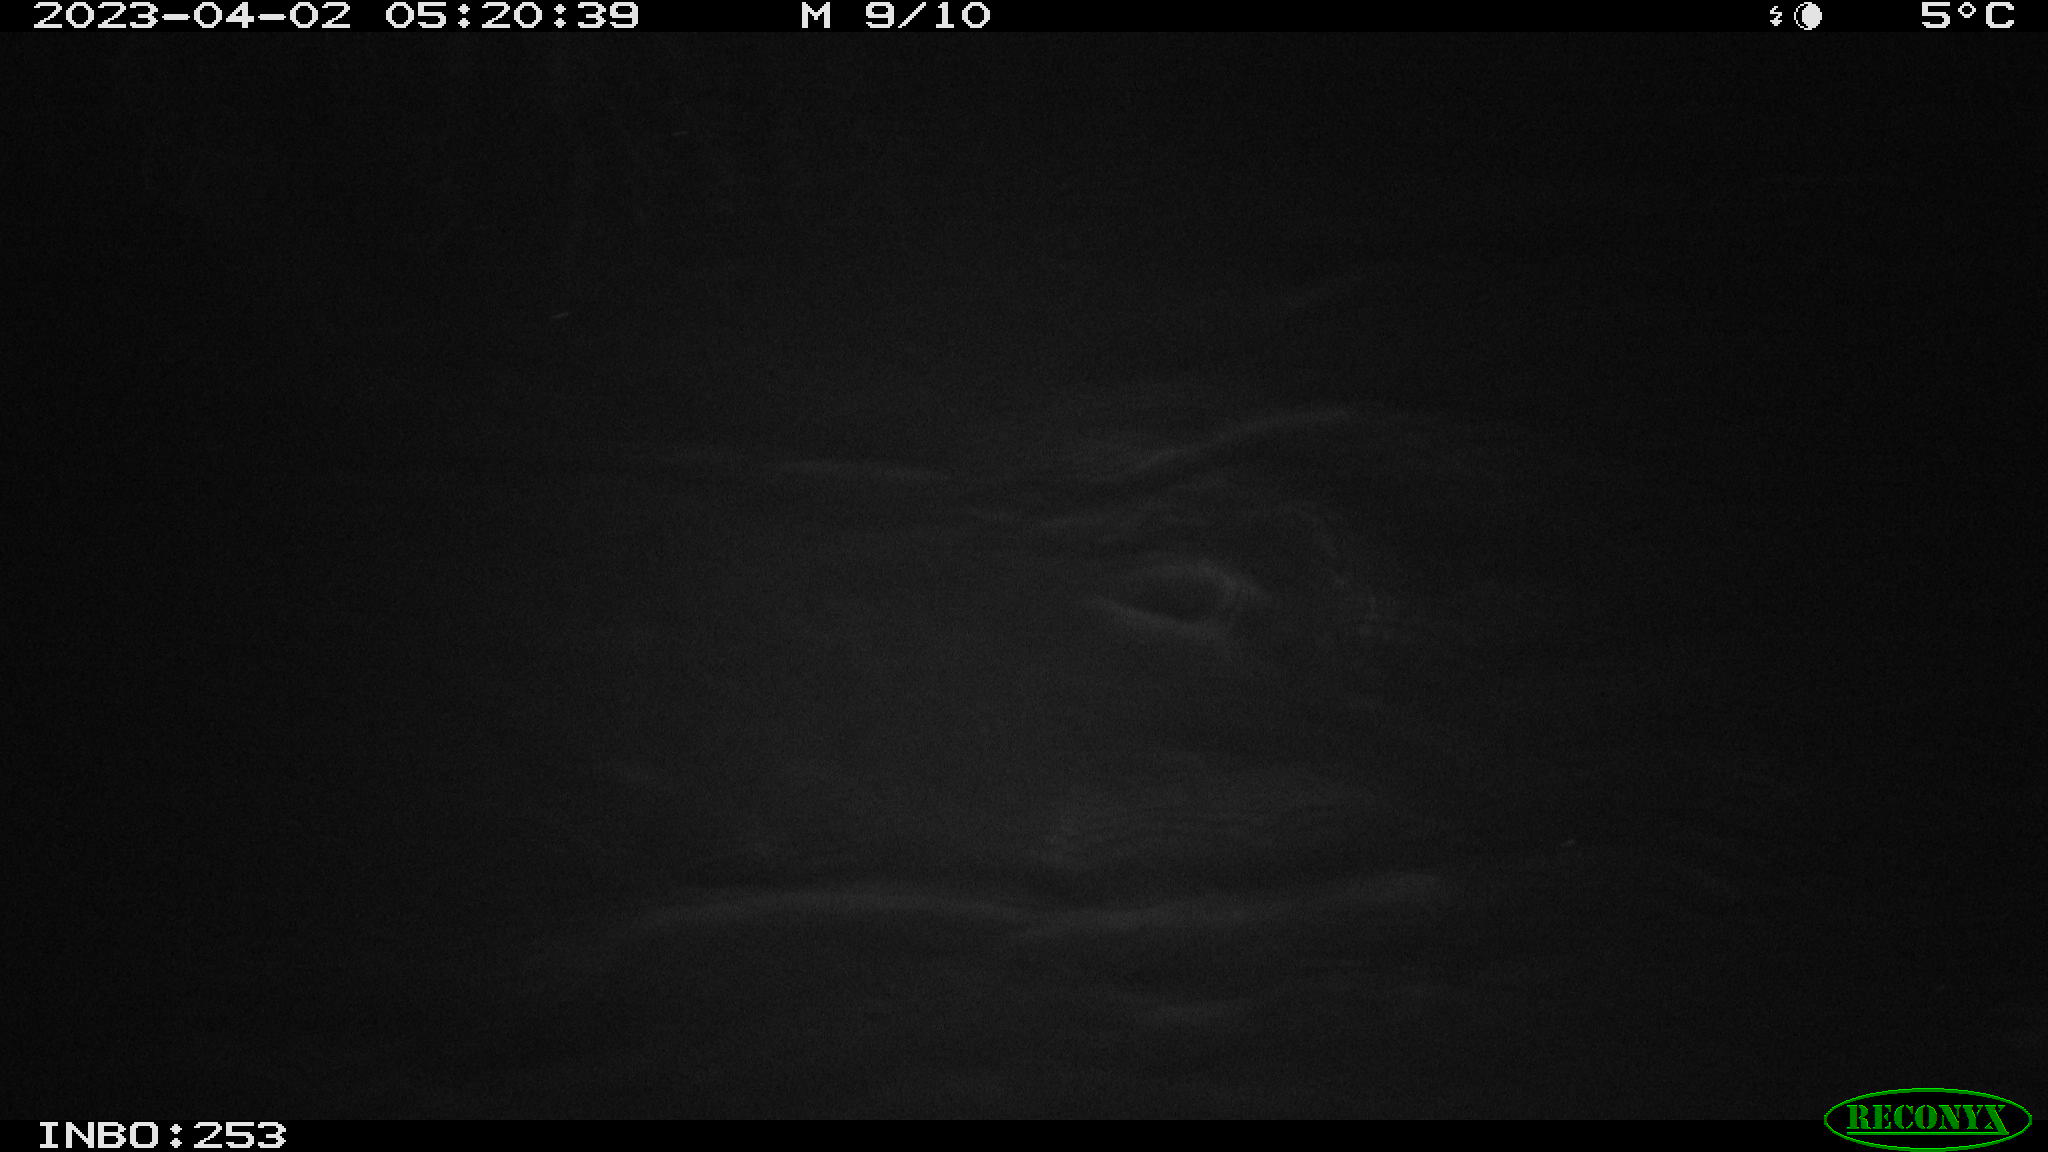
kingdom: Animalia
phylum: Chordata
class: Aves
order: Anseriformes
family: Anatidae
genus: Anas
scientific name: Anas
